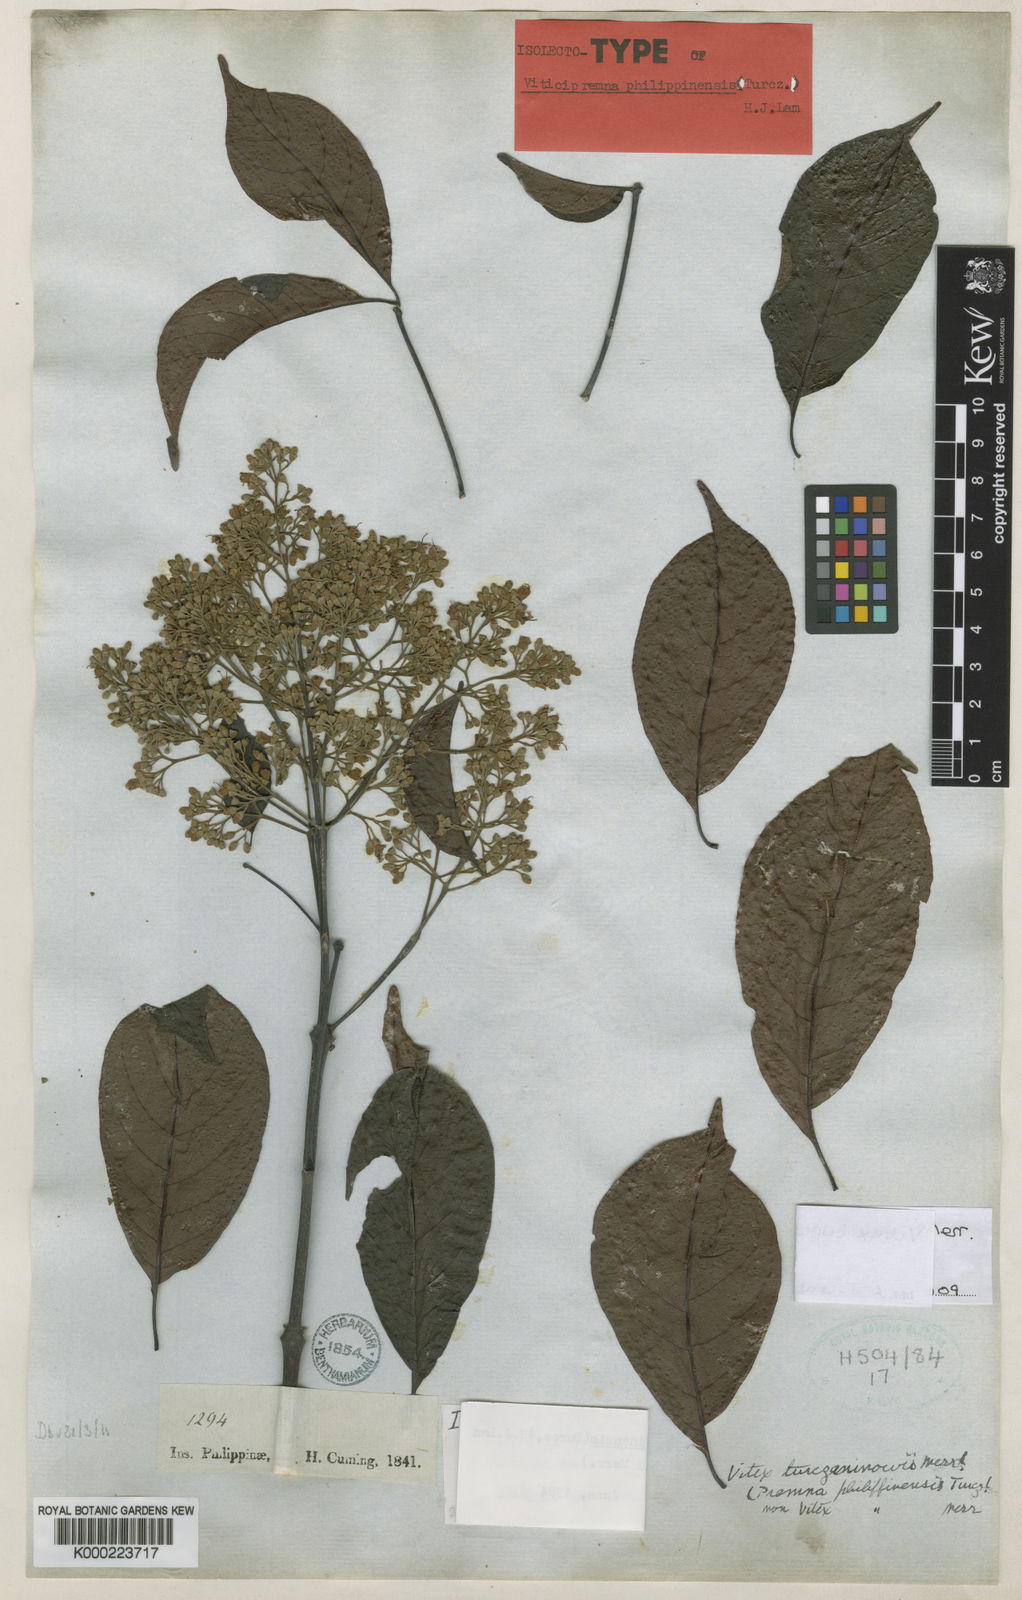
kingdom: Plantae
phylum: Tracheophyta
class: Magnoliopsida
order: Lamiales
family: Lamiaceae
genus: Vitex
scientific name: Vitex turczaninowii
